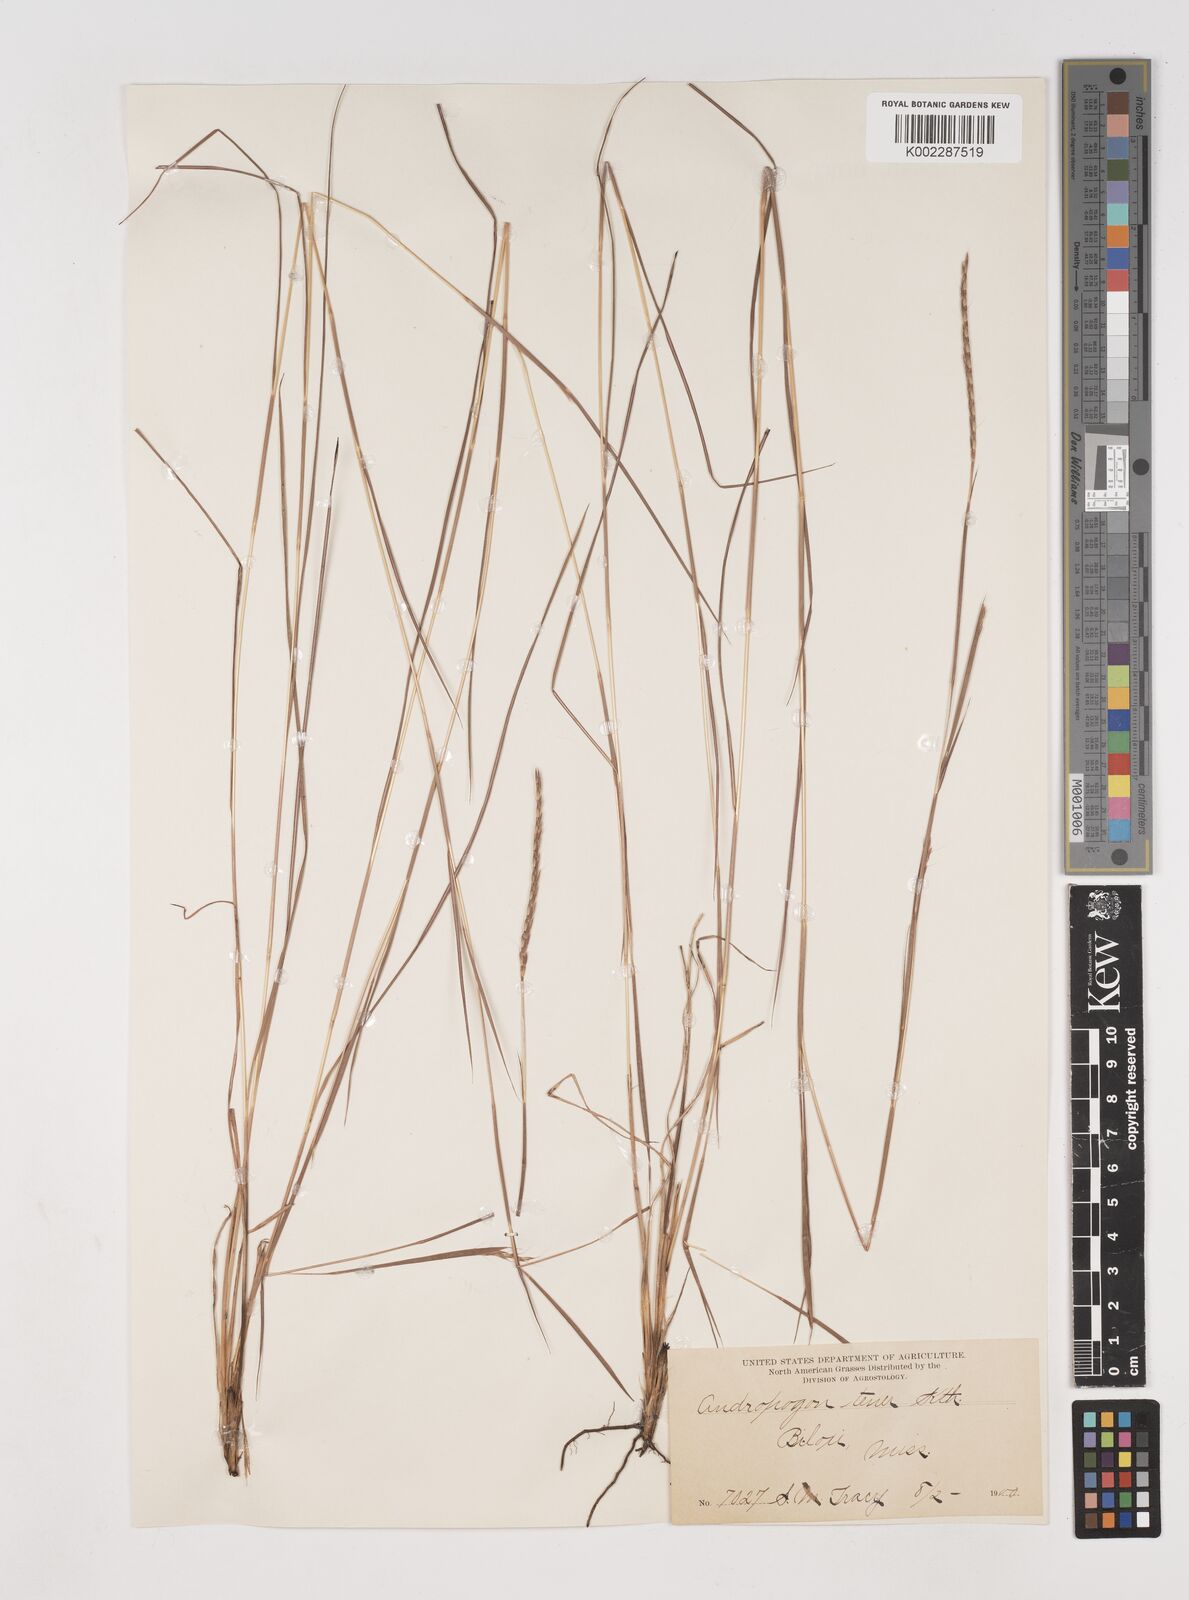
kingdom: Plantae
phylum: Tracheophyta
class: Liliopsida
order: Poales
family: Poaceae
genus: Andropogon
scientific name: Andropogon tener
